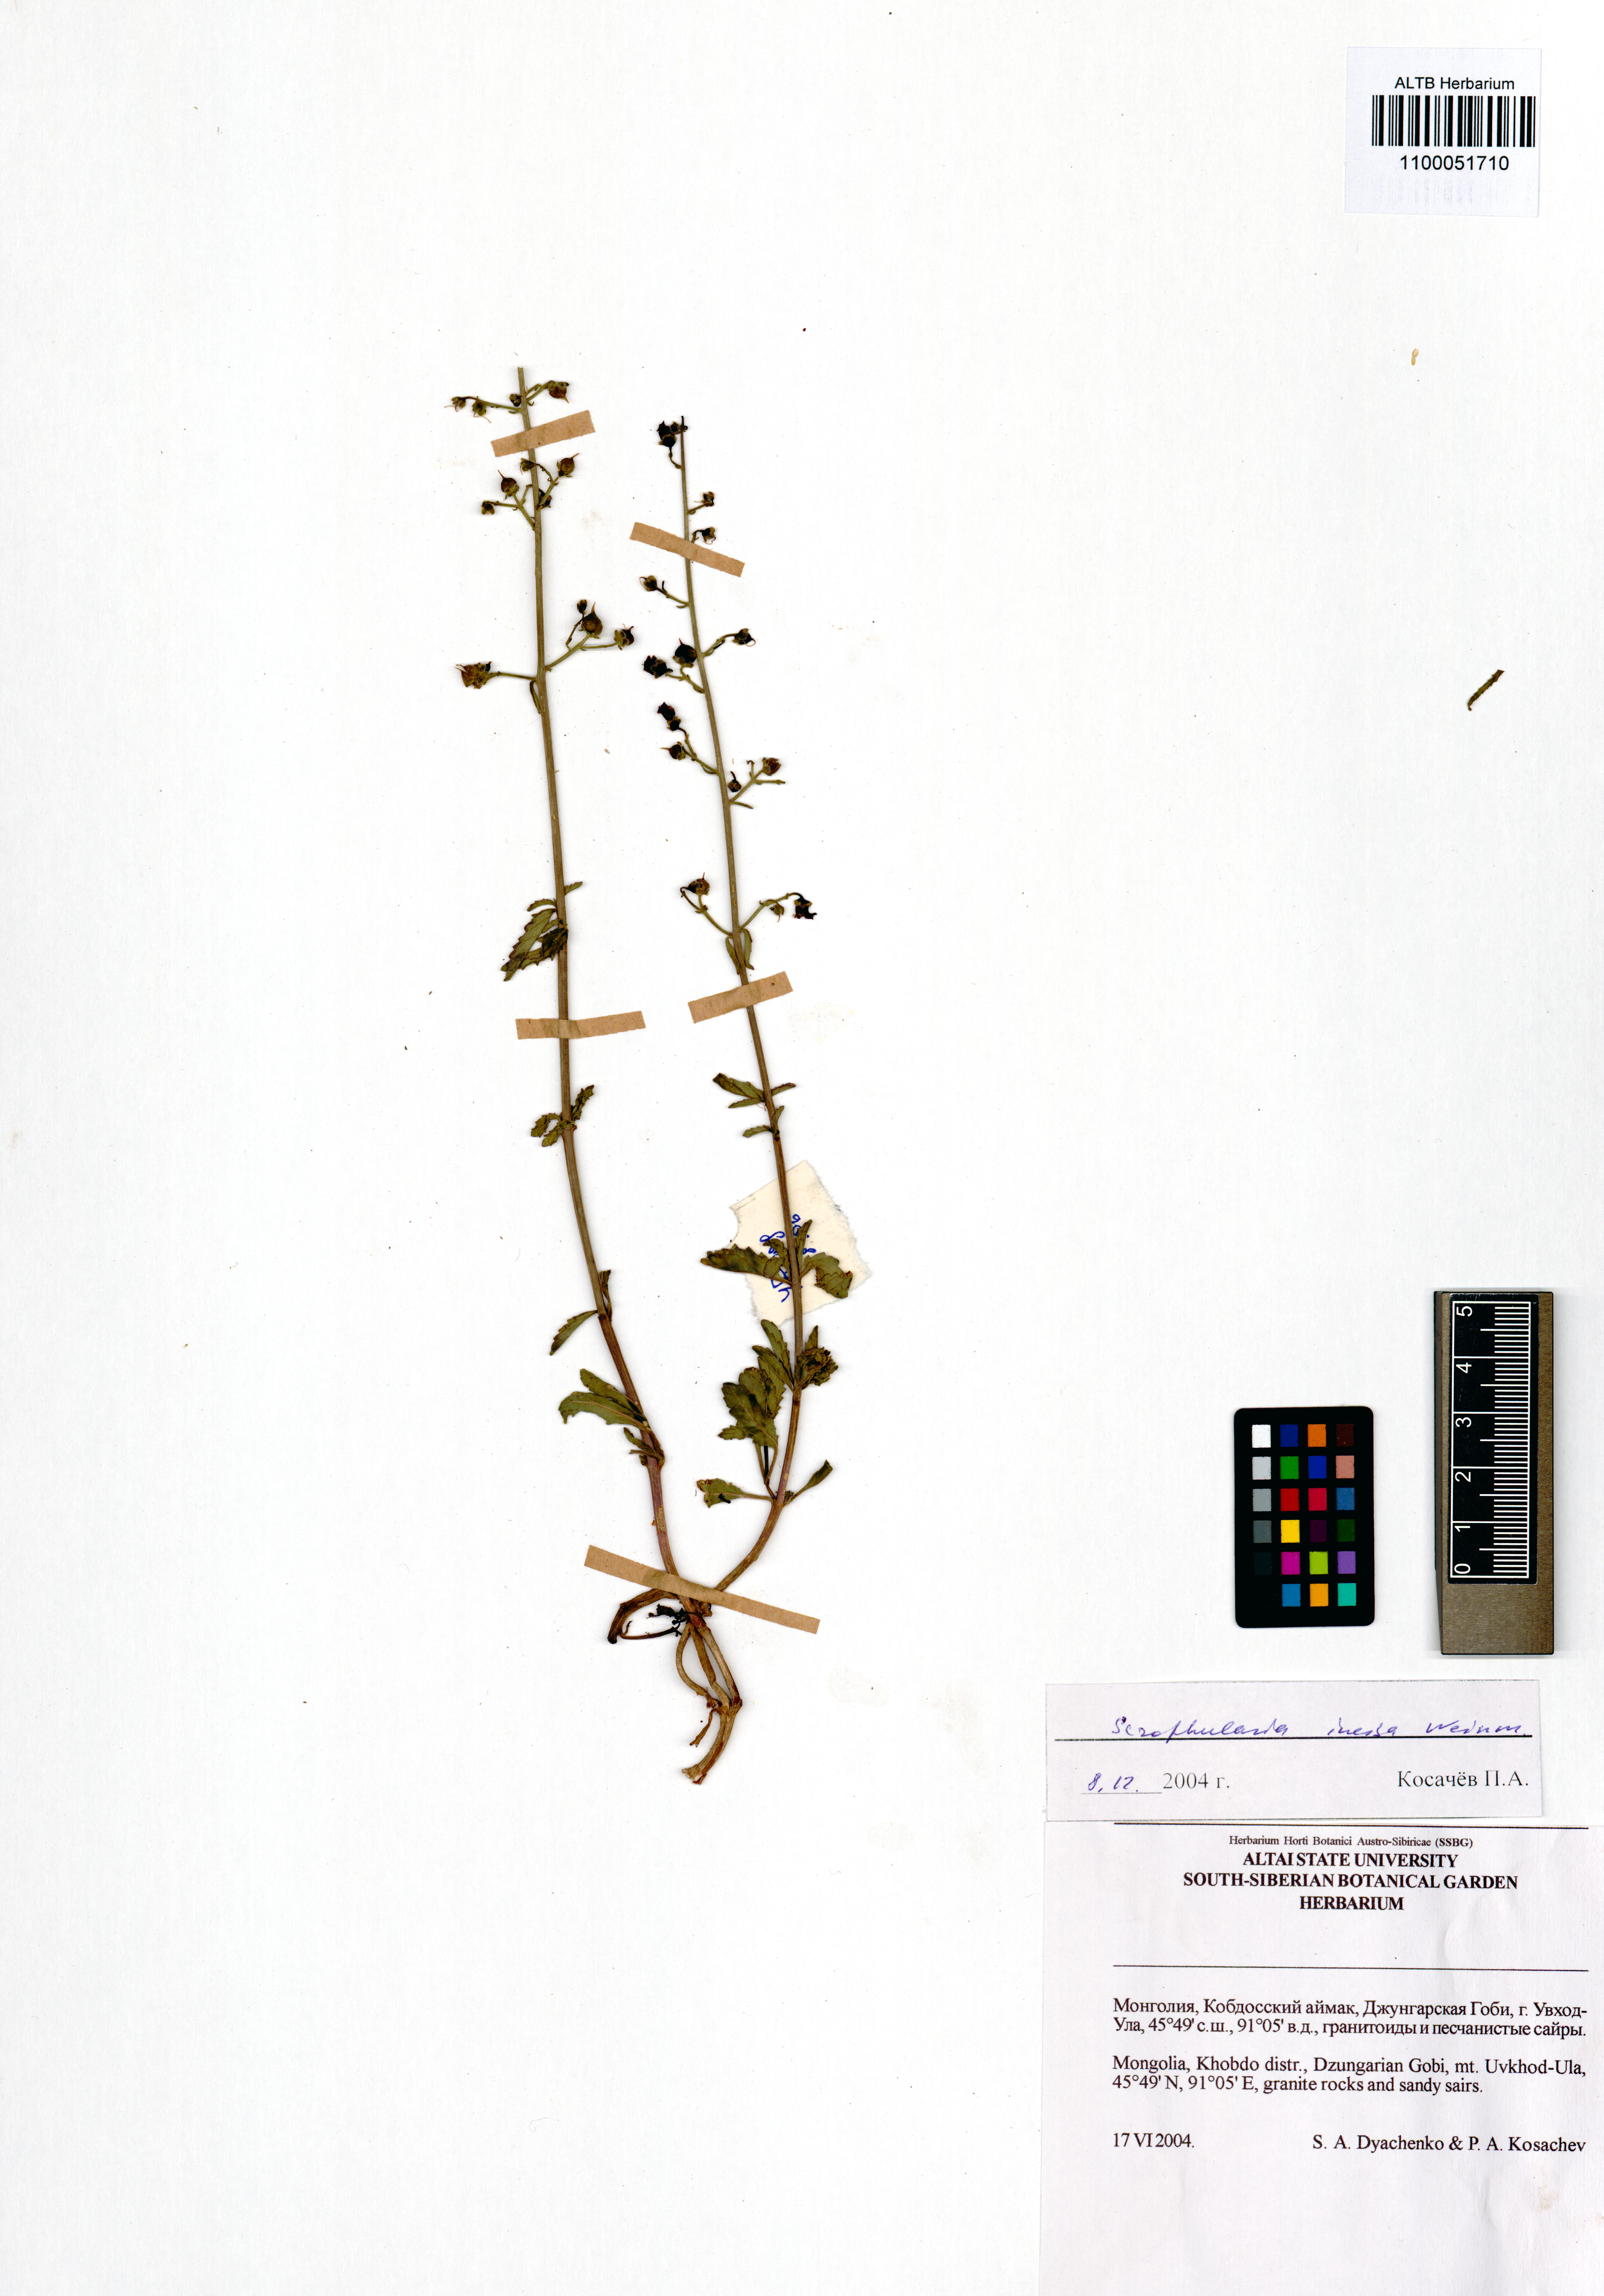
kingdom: Plantae
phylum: Tracheophyta
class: Magnoliopsida
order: Lamiales
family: Scrophulariaceae
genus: Scrophularia
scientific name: Scrophularia incisa
